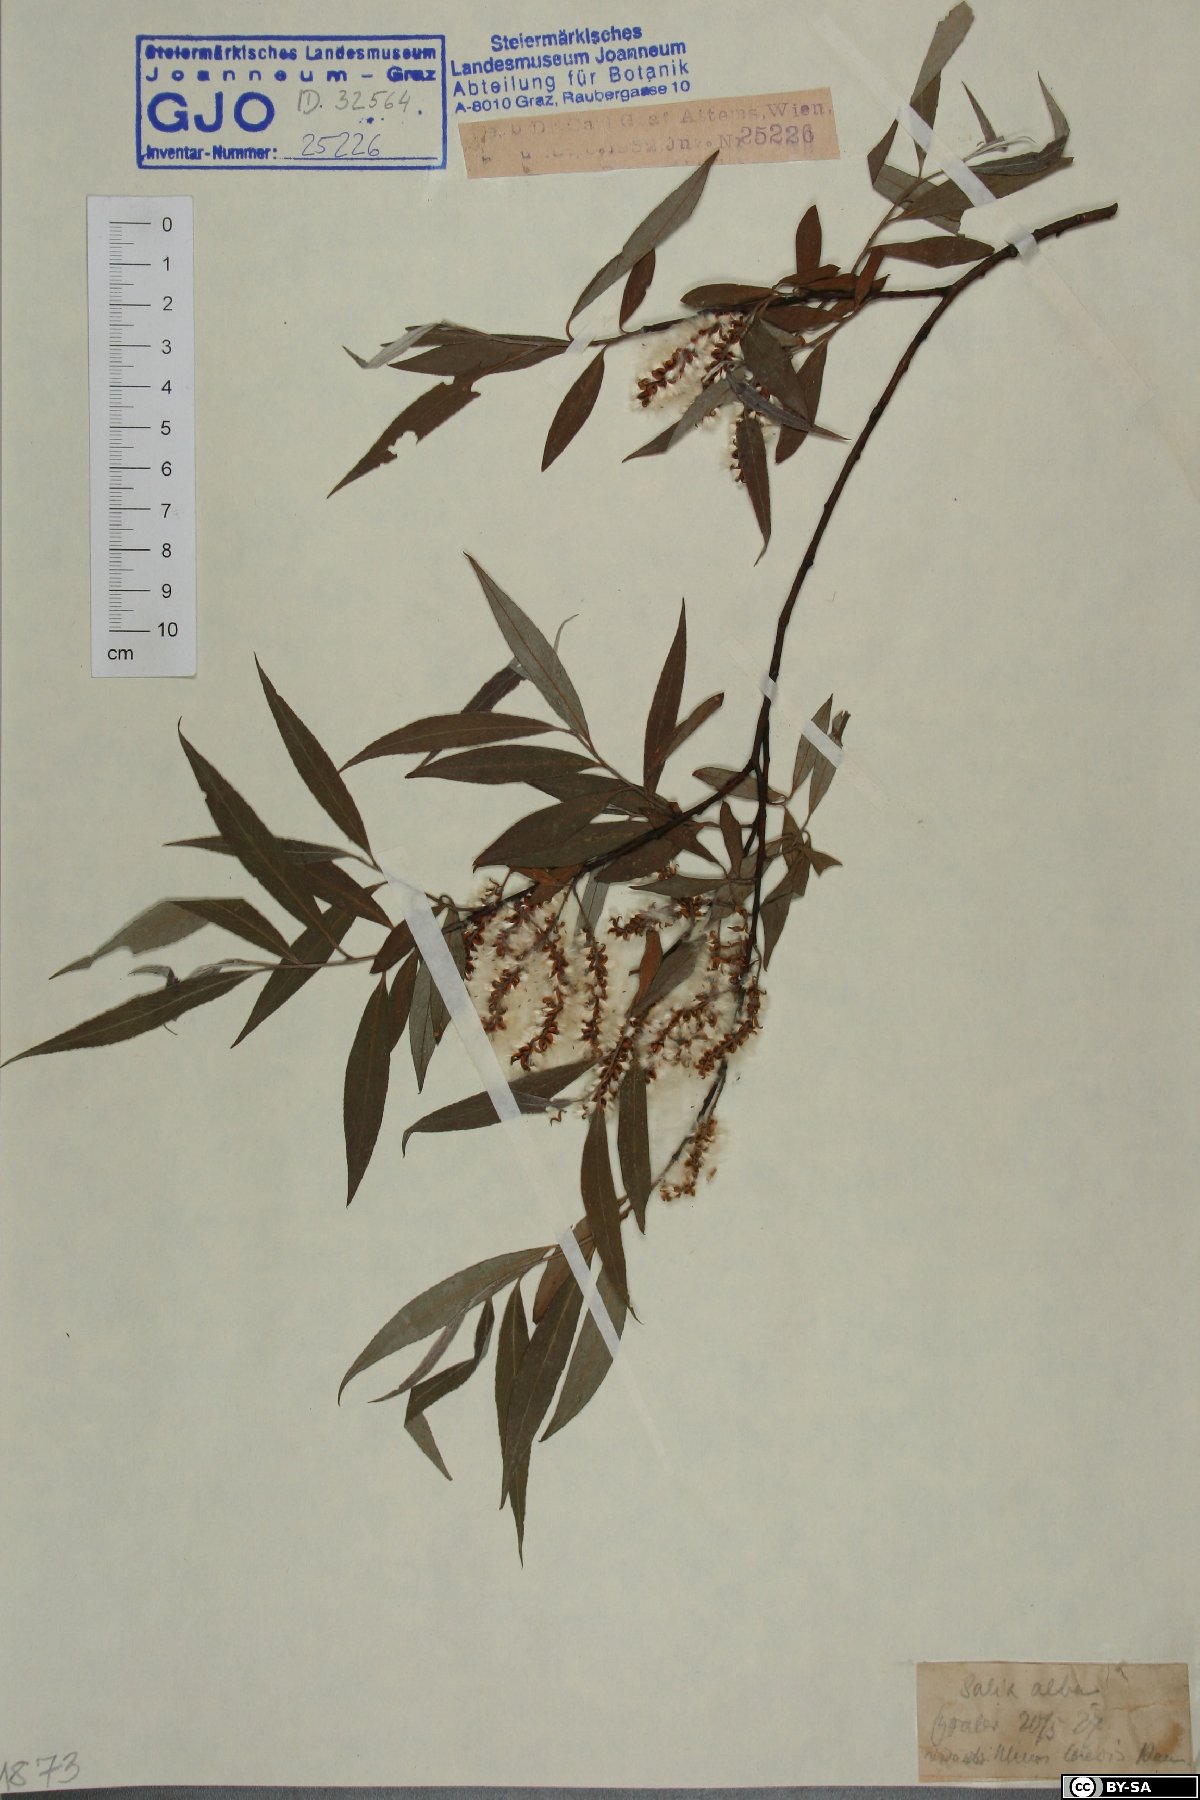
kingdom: Plantae
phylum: Tracheophyta
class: Magnoliopsida
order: Malpighiales
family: Salicaceae
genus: Salix
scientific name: Salix alba
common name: White willow
